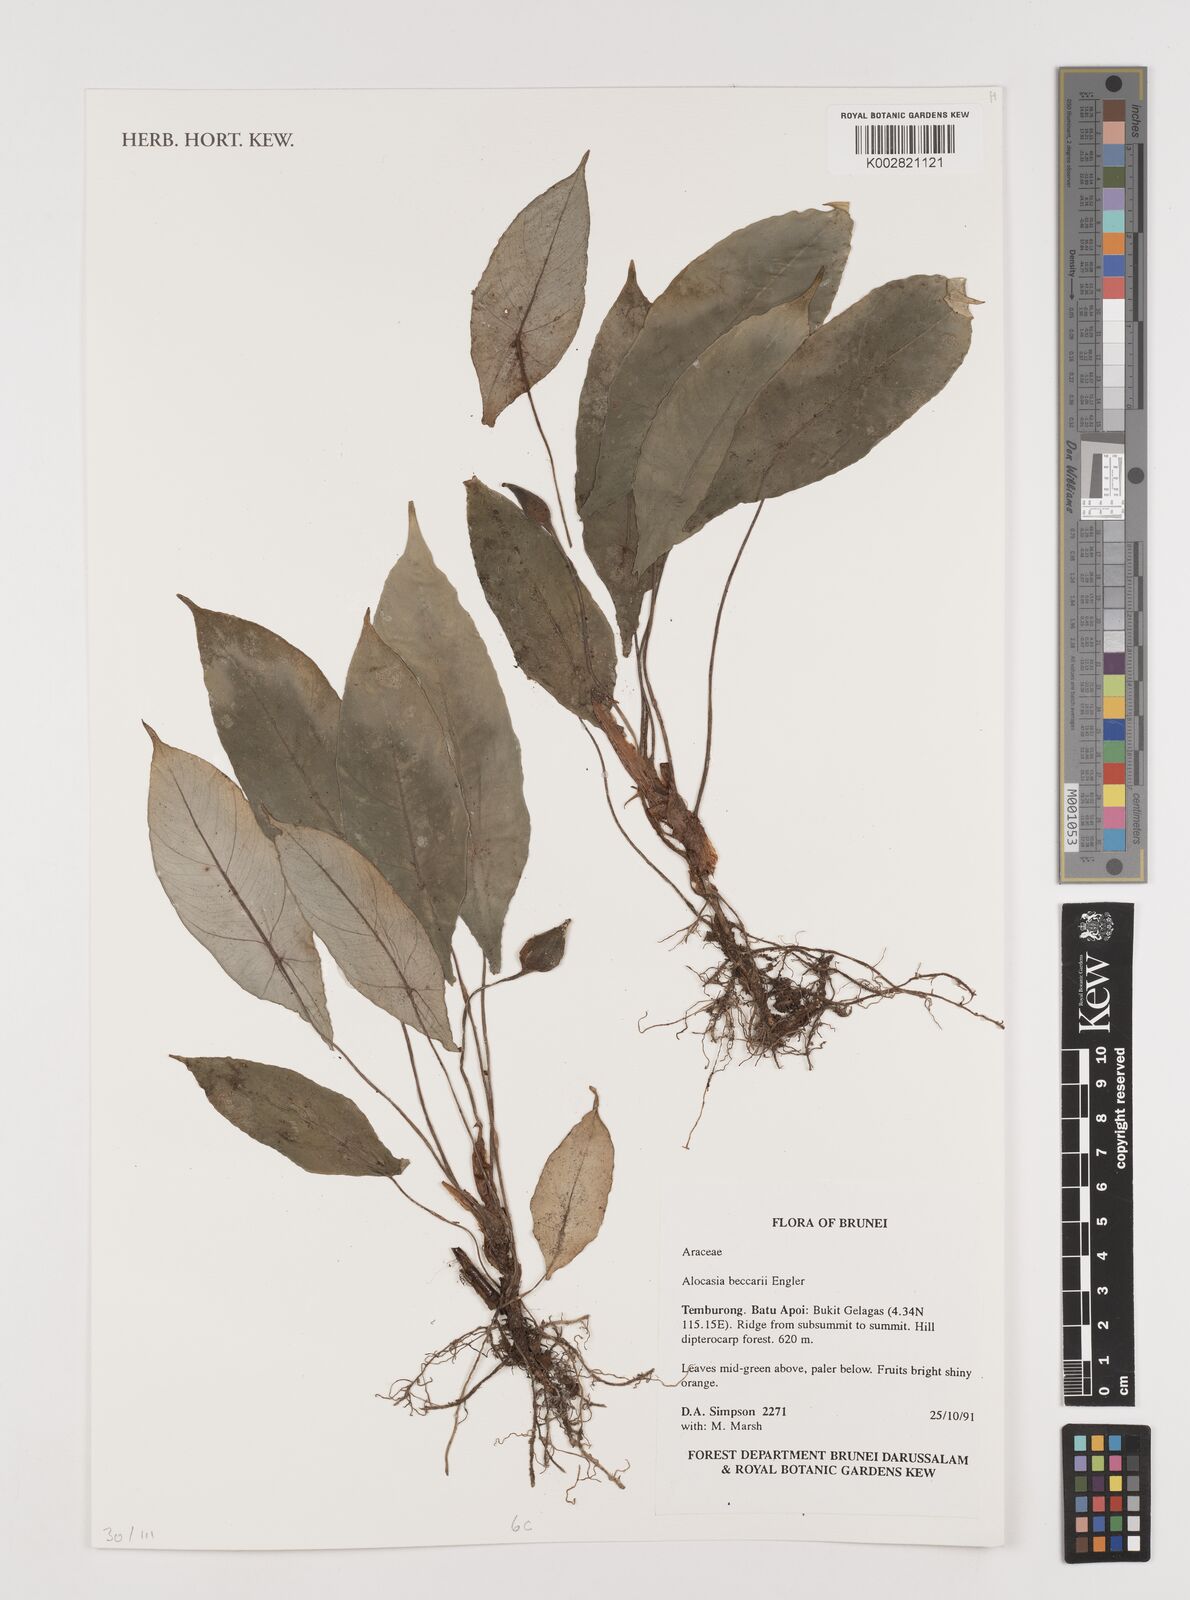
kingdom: Plantae
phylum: Tracheophyta
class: Liliopsida
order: Alismatales
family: Araceae
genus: Alocasia
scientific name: Alocasia beccarii
